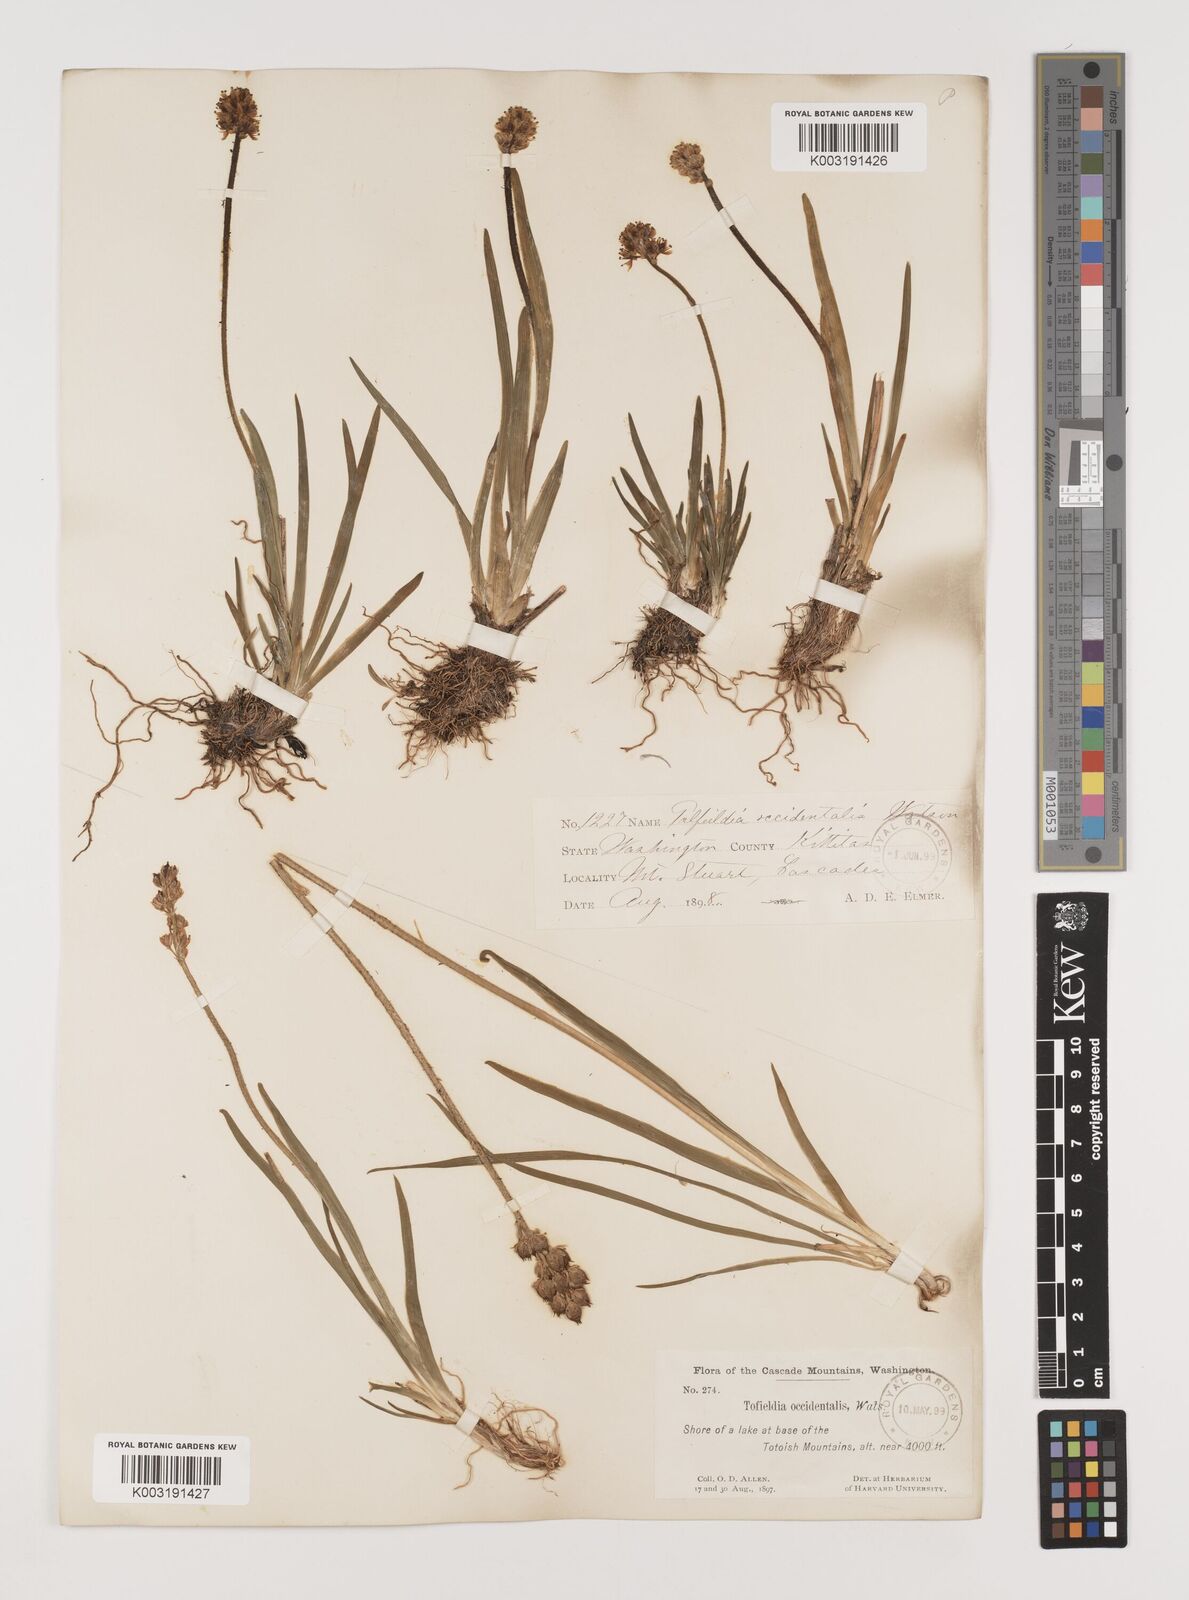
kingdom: Plantae
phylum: Tracheophyta
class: Liliopsida
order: Alismatales
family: Tofieldiaceae
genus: Triantha
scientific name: Triantha occidentalis
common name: Western false asphodel
